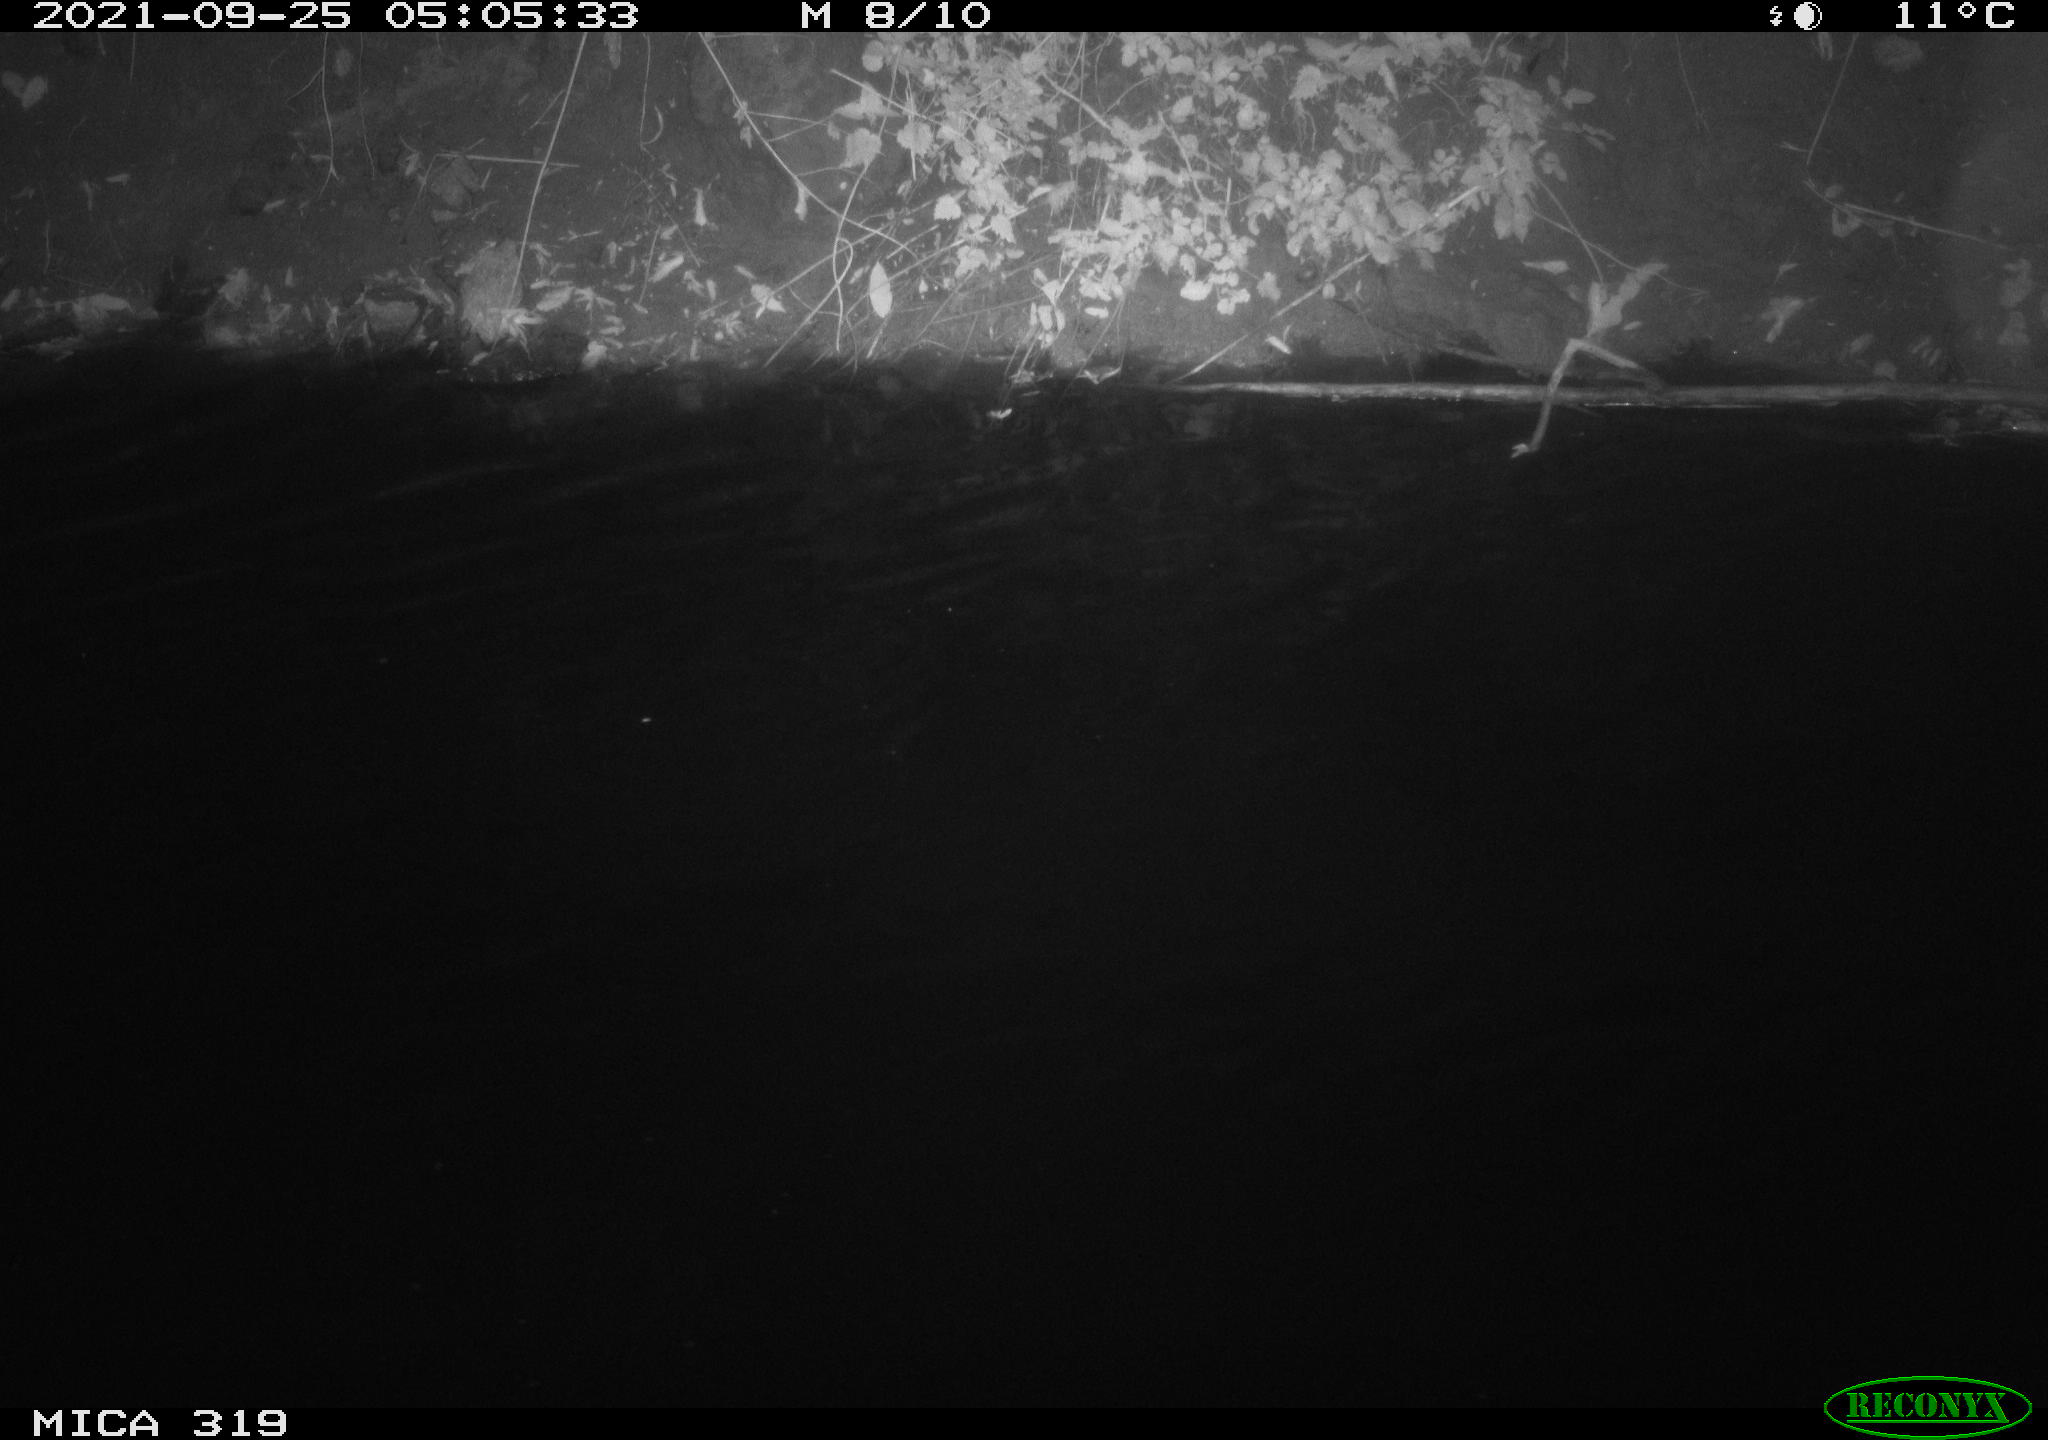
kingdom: Animalia
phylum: Chordata
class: Aves
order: Anseriformes
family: Anatidae
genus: Anas
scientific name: Anas platyrhynchos
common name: Mallard
